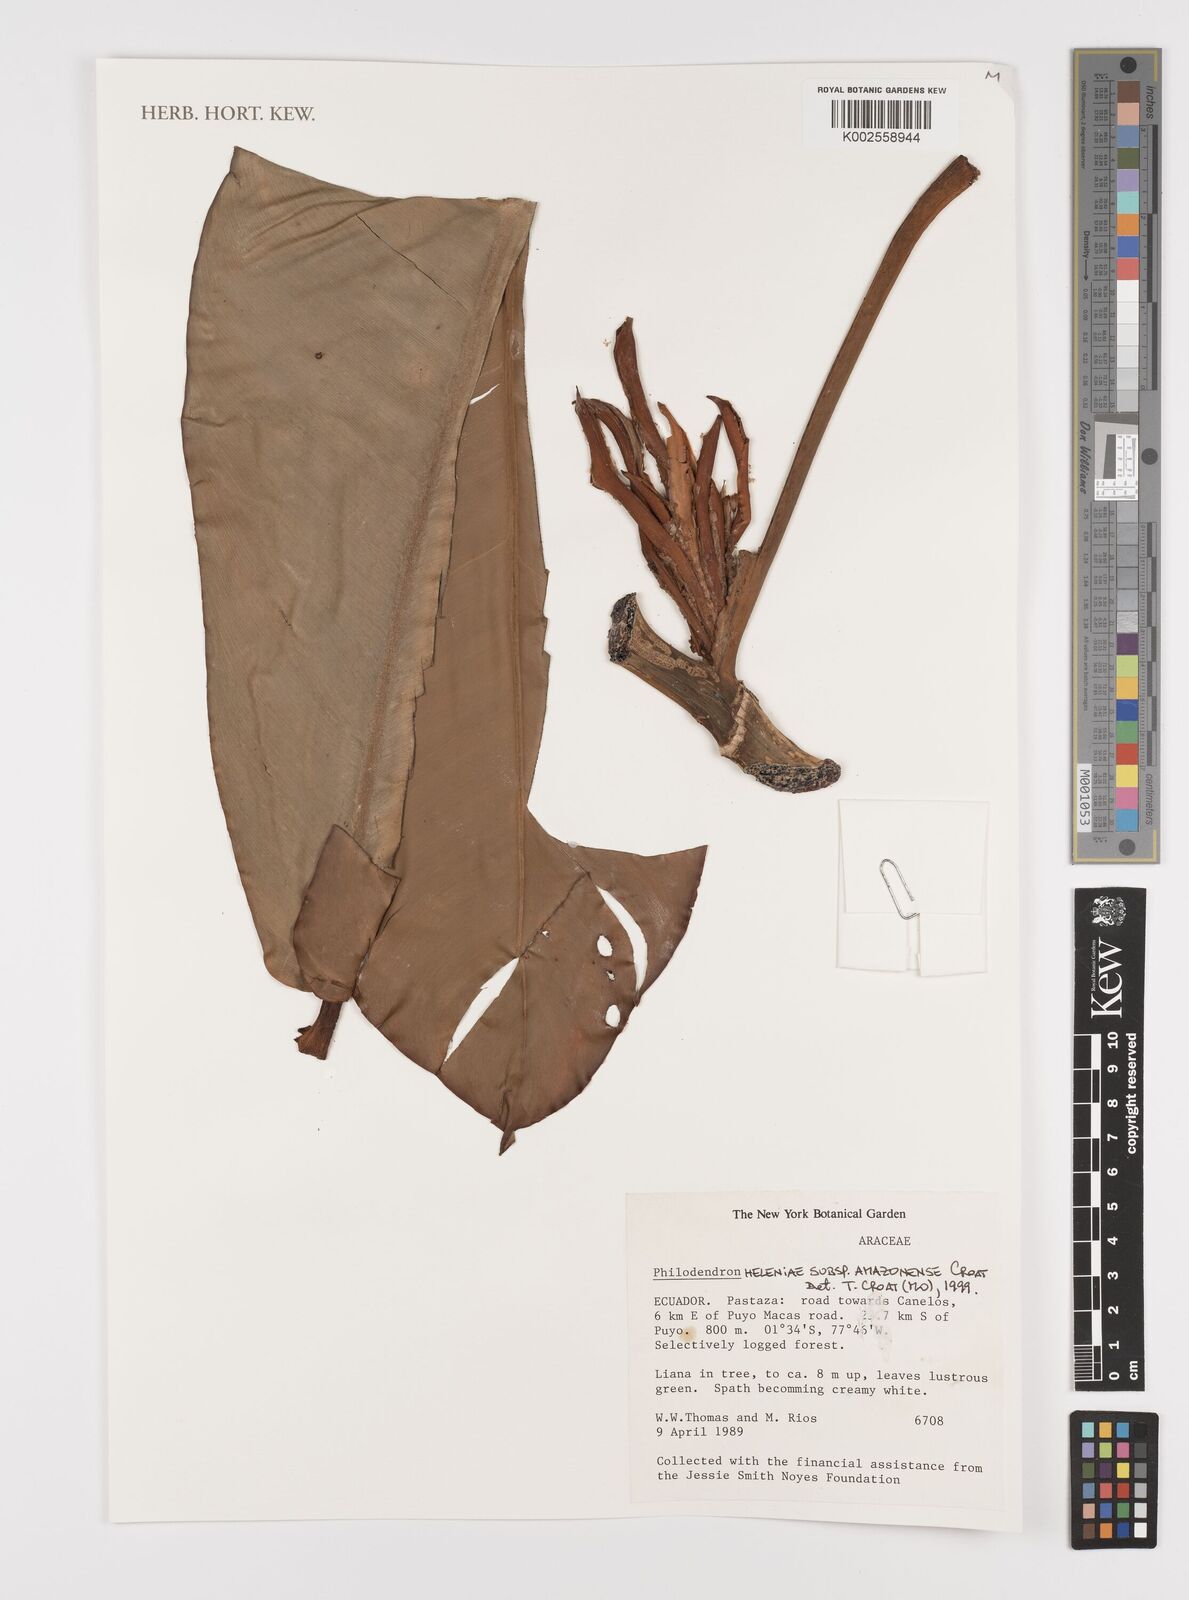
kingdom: Plantae
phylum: Tracheophyta
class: Liliopsida
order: Alismatales
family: Araceae
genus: Philodendron
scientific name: Philodendron heleniae
